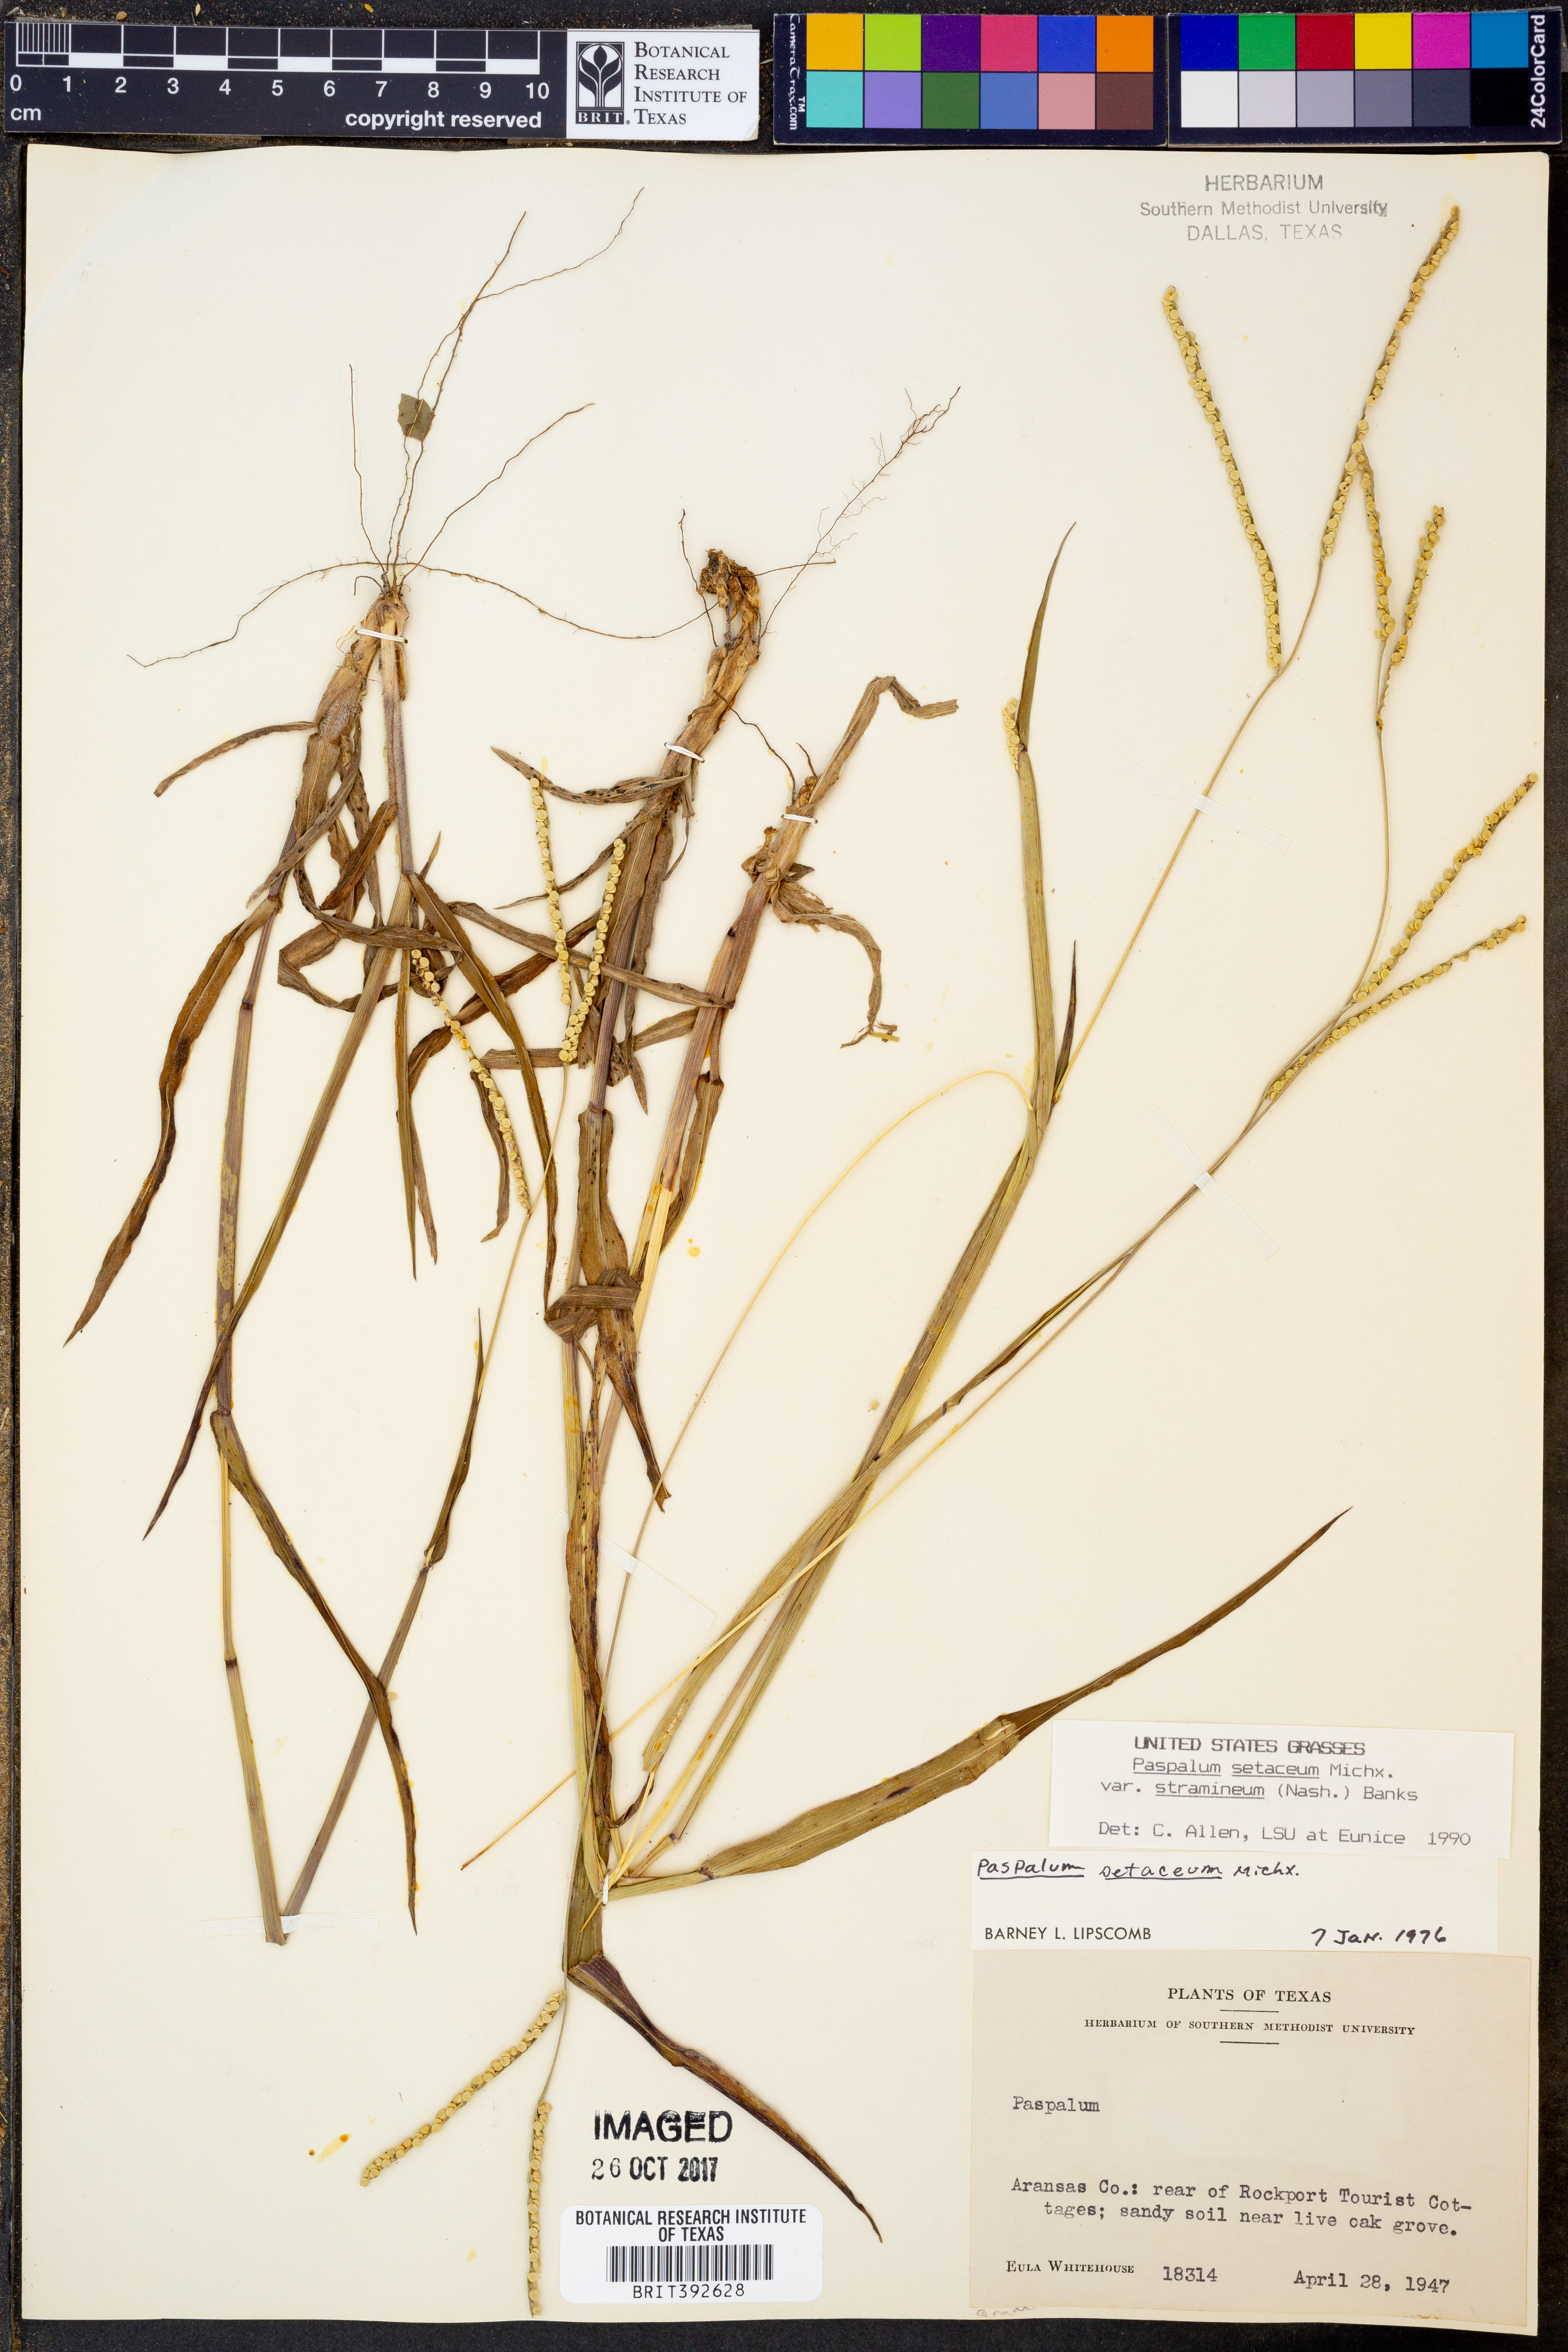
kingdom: Plantae
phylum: Tracheophyta
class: Liliopsida
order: Poales
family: Poaceae
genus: Paspalum
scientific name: Paspalum setaceum
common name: Slender paspalum
